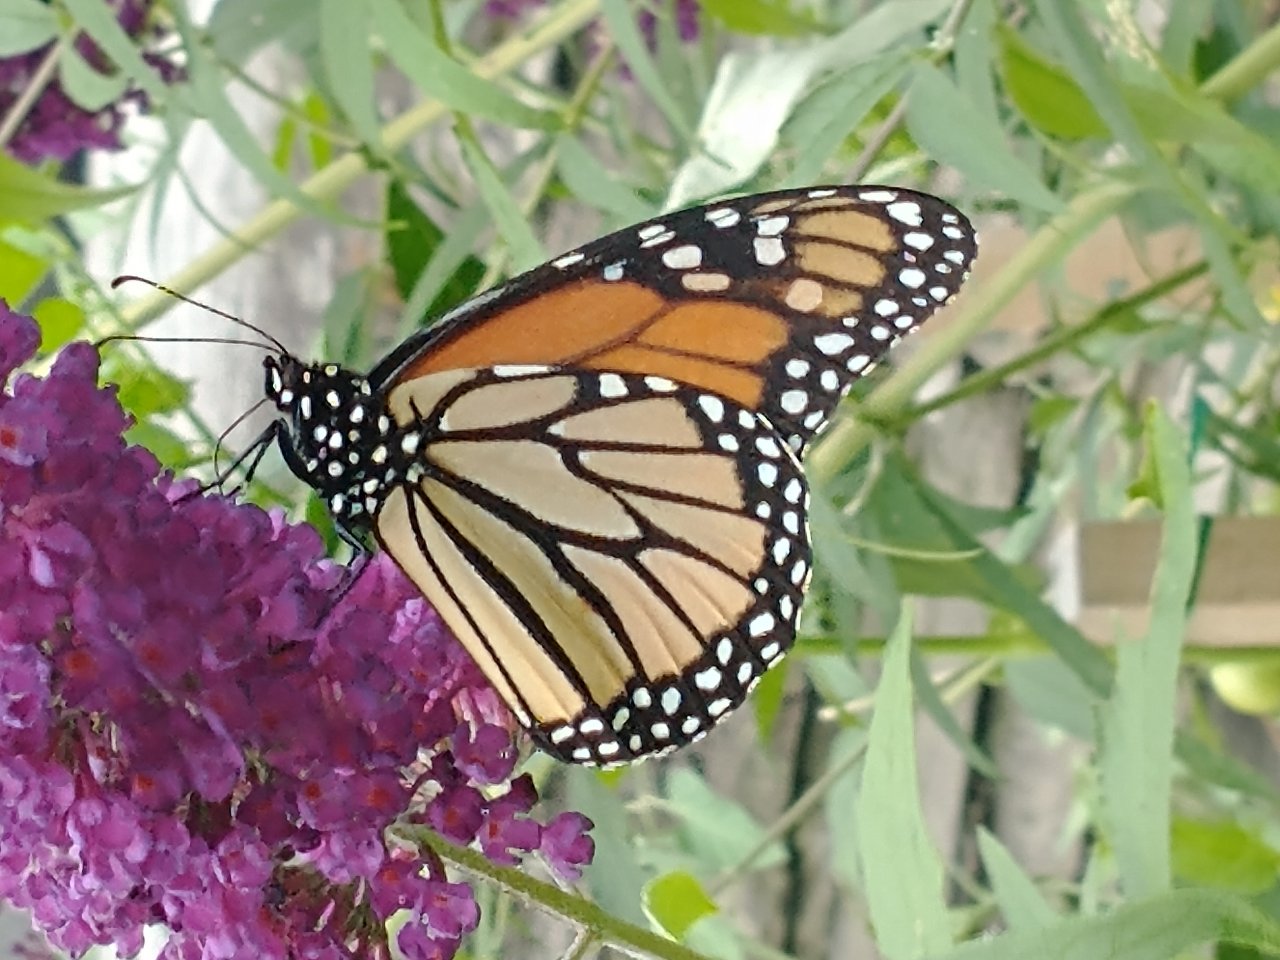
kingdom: Animalia
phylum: Arthropoda
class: Insecta
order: Lepidoptera
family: Nymphalidae
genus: Danaus
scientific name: Danaus plexippus
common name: Monarch
